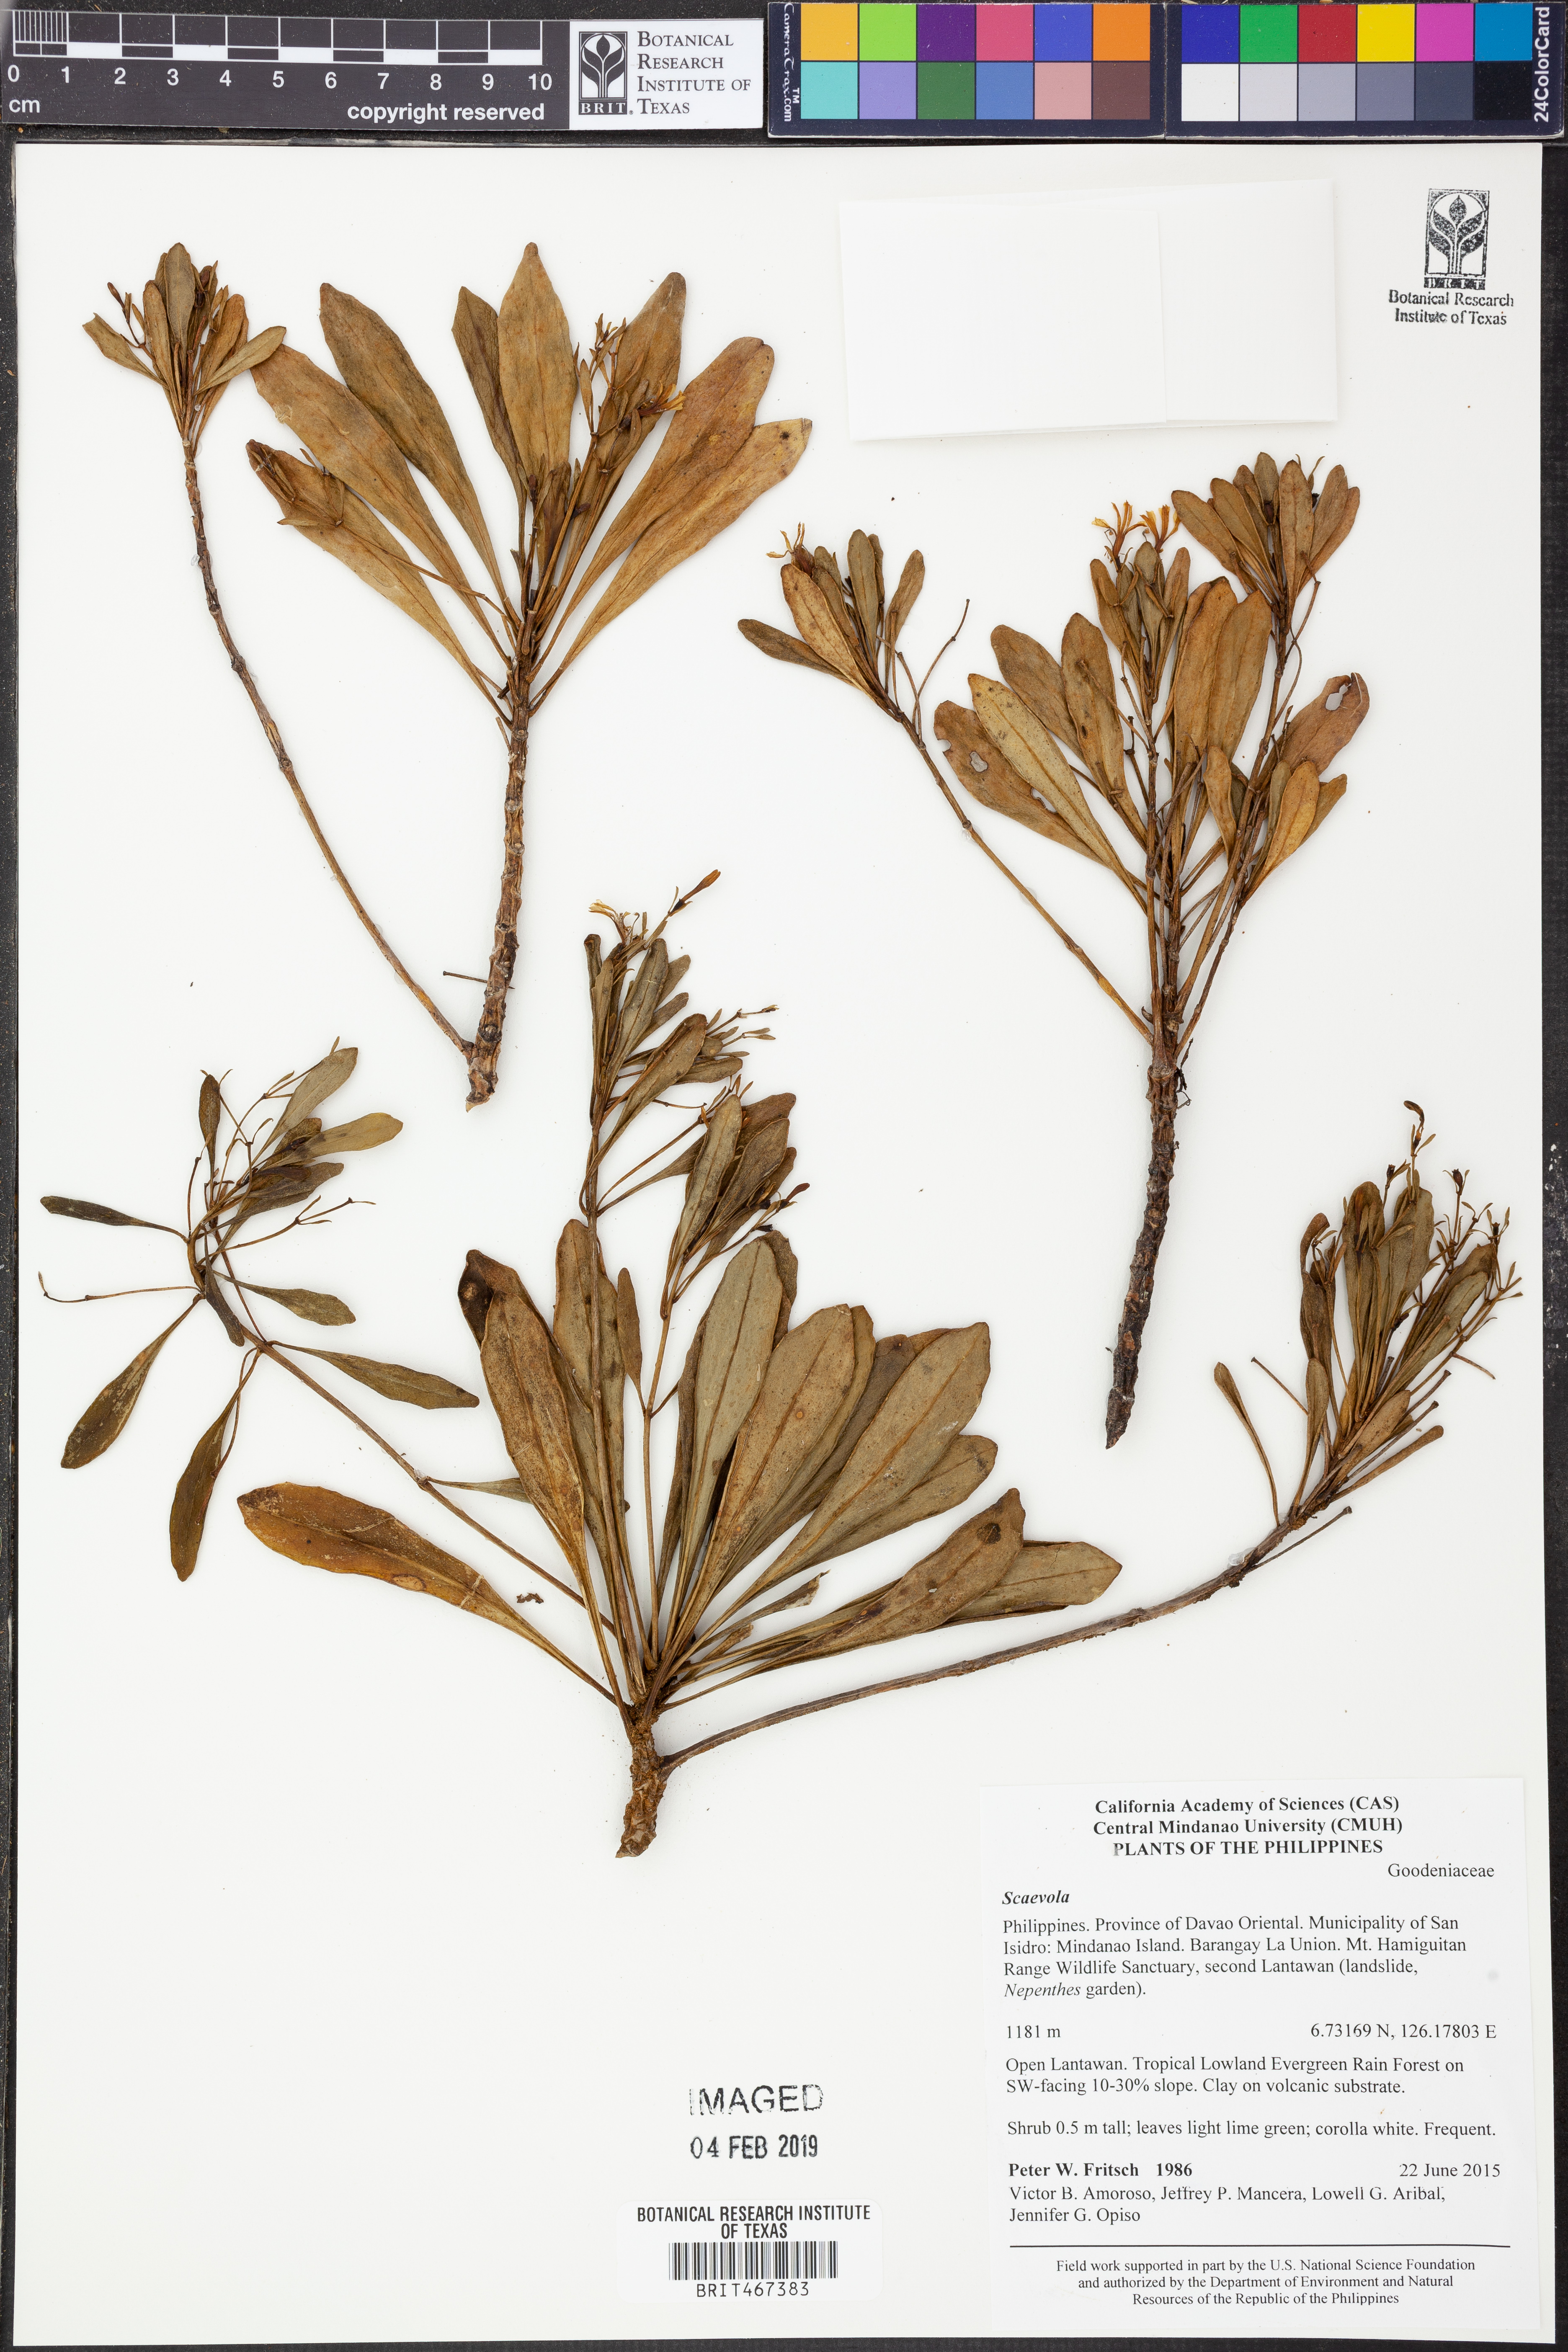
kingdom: Plantae
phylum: Tracheophyta
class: Magnoliopsida
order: Asterales
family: Goodeniaceae
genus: Scaevola
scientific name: Scaevola
